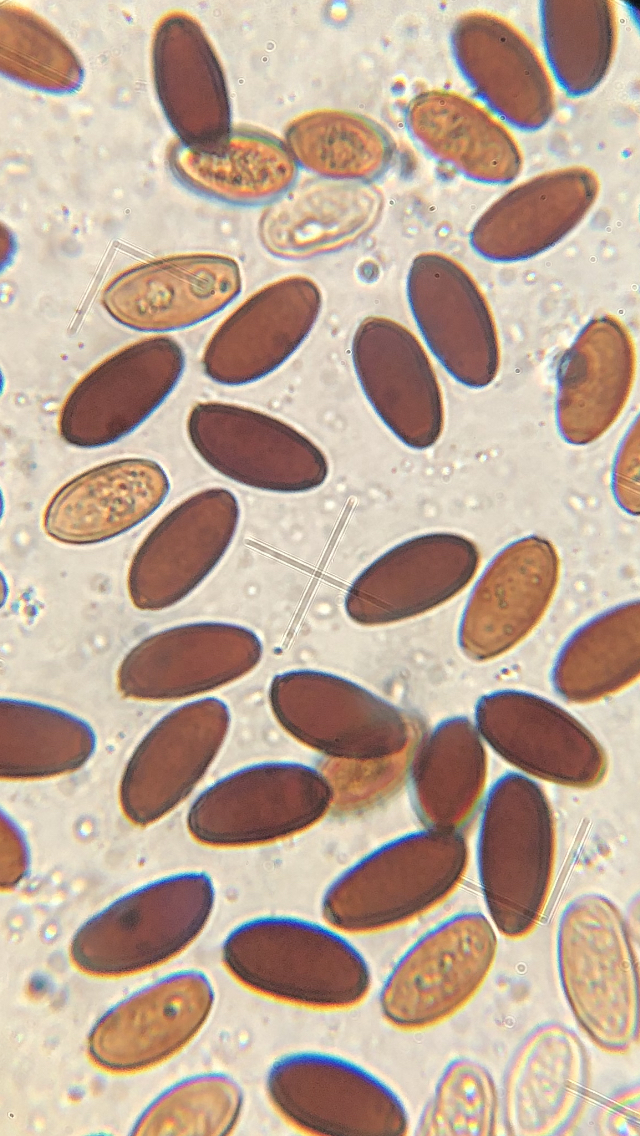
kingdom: Fungi
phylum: Basidiomycota
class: Agaricomycetes
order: Agaricales
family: Psathyrellaceae
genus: Parasola
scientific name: Parasola conopilea
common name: kegle-hjulhat
